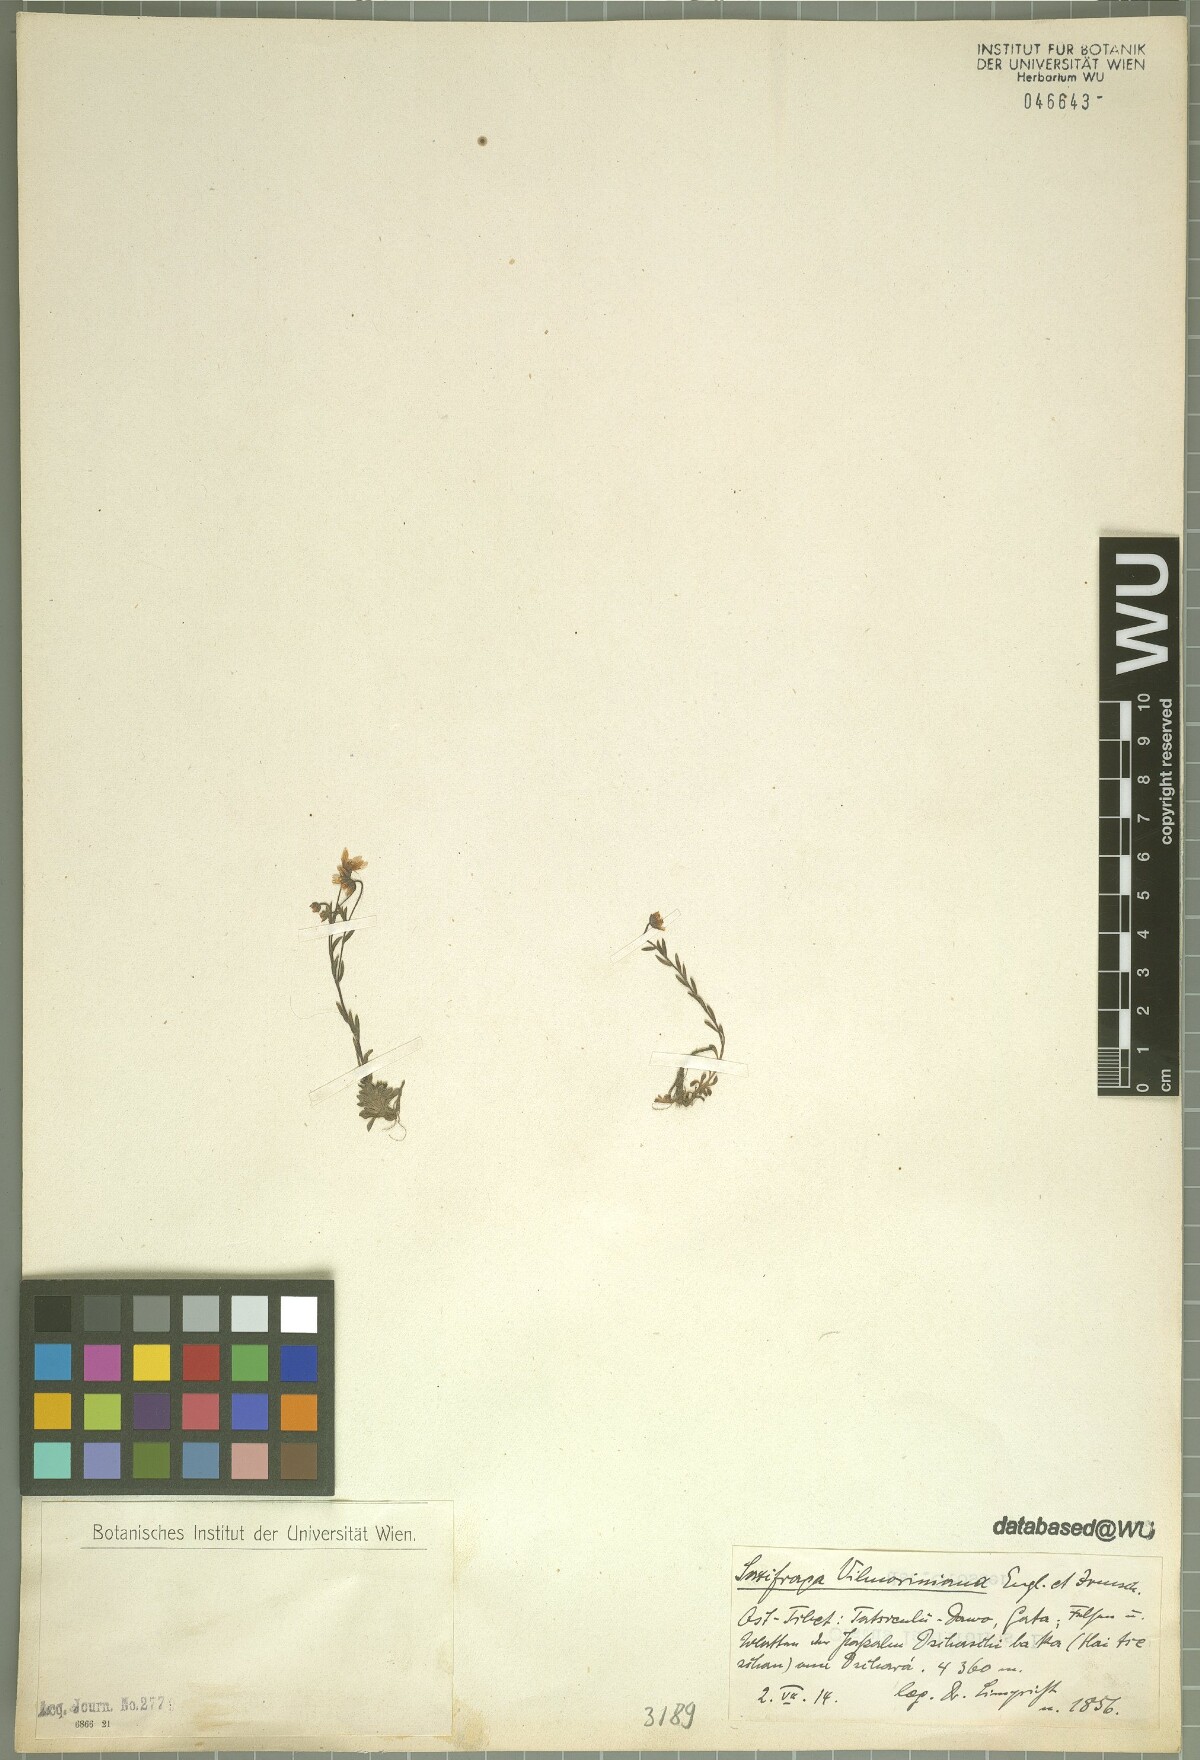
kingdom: Plantae
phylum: Tracheophyta
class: Magnoliopsida
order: Saxifragales
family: Saxifragaceae
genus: Saxifraga
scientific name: Saxifraga unguiculata
